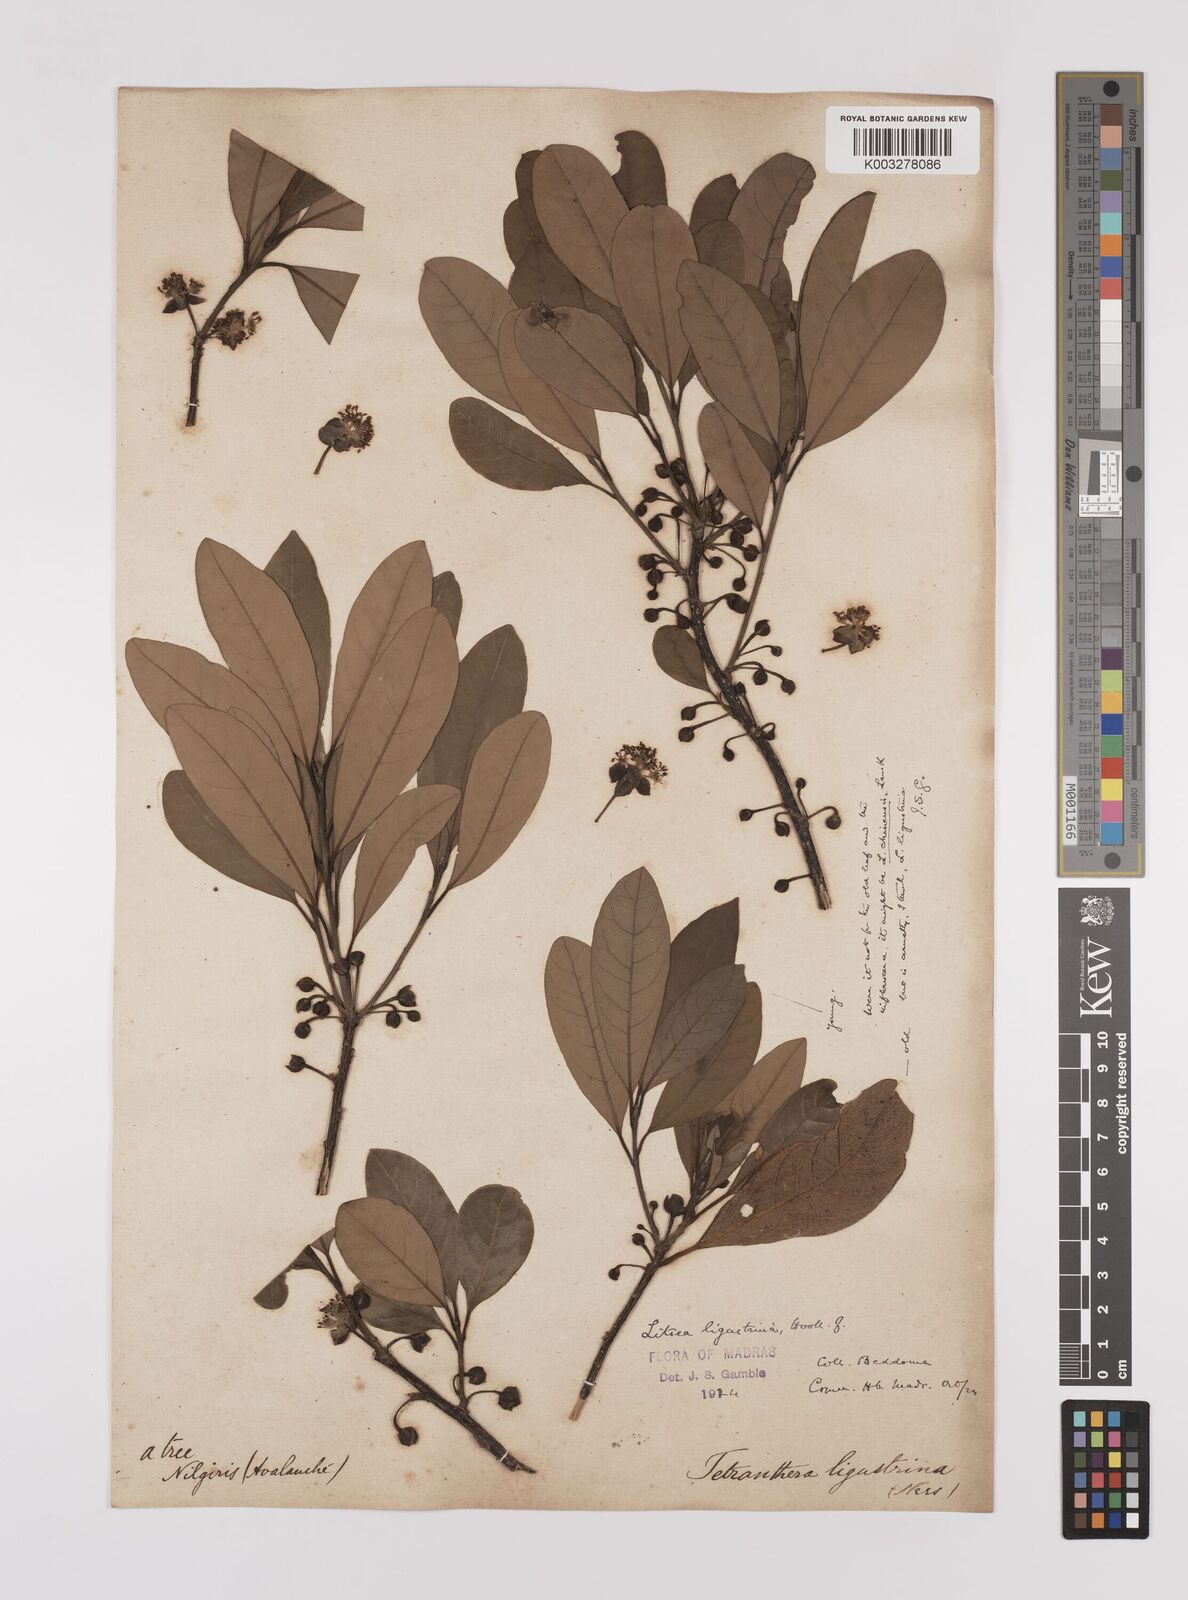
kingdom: Plantae
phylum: Tracheophyta
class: Magnoliopsida
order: Laurales
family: Lauraceae
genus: Litsea
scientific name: Litsea ligustrina
